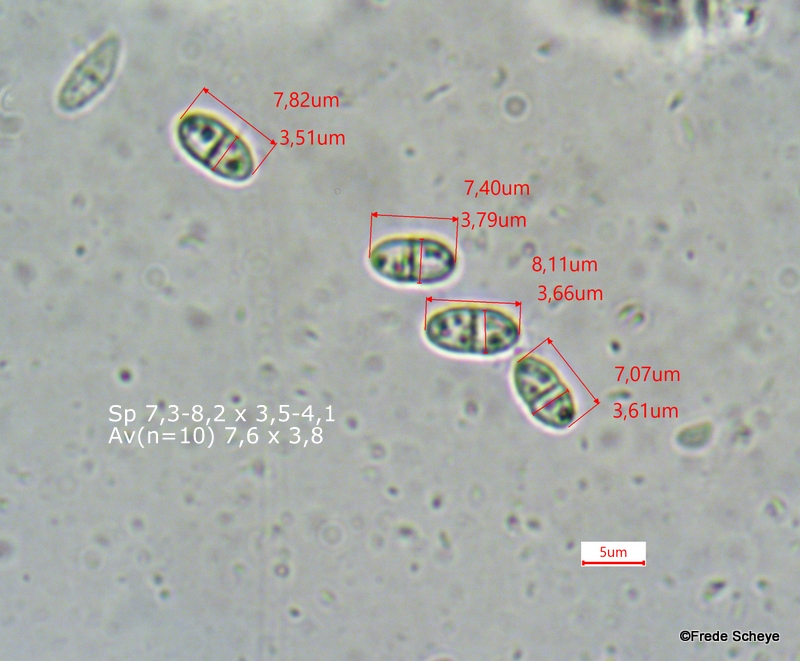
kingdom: Fungi
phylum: Ascomycota
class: Sordariomycetes
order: Hypocreales
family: Nectriaceae
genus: Cosmospora
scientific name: Cosmospora arxii
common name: kuljordbær-cinnobersvamp
